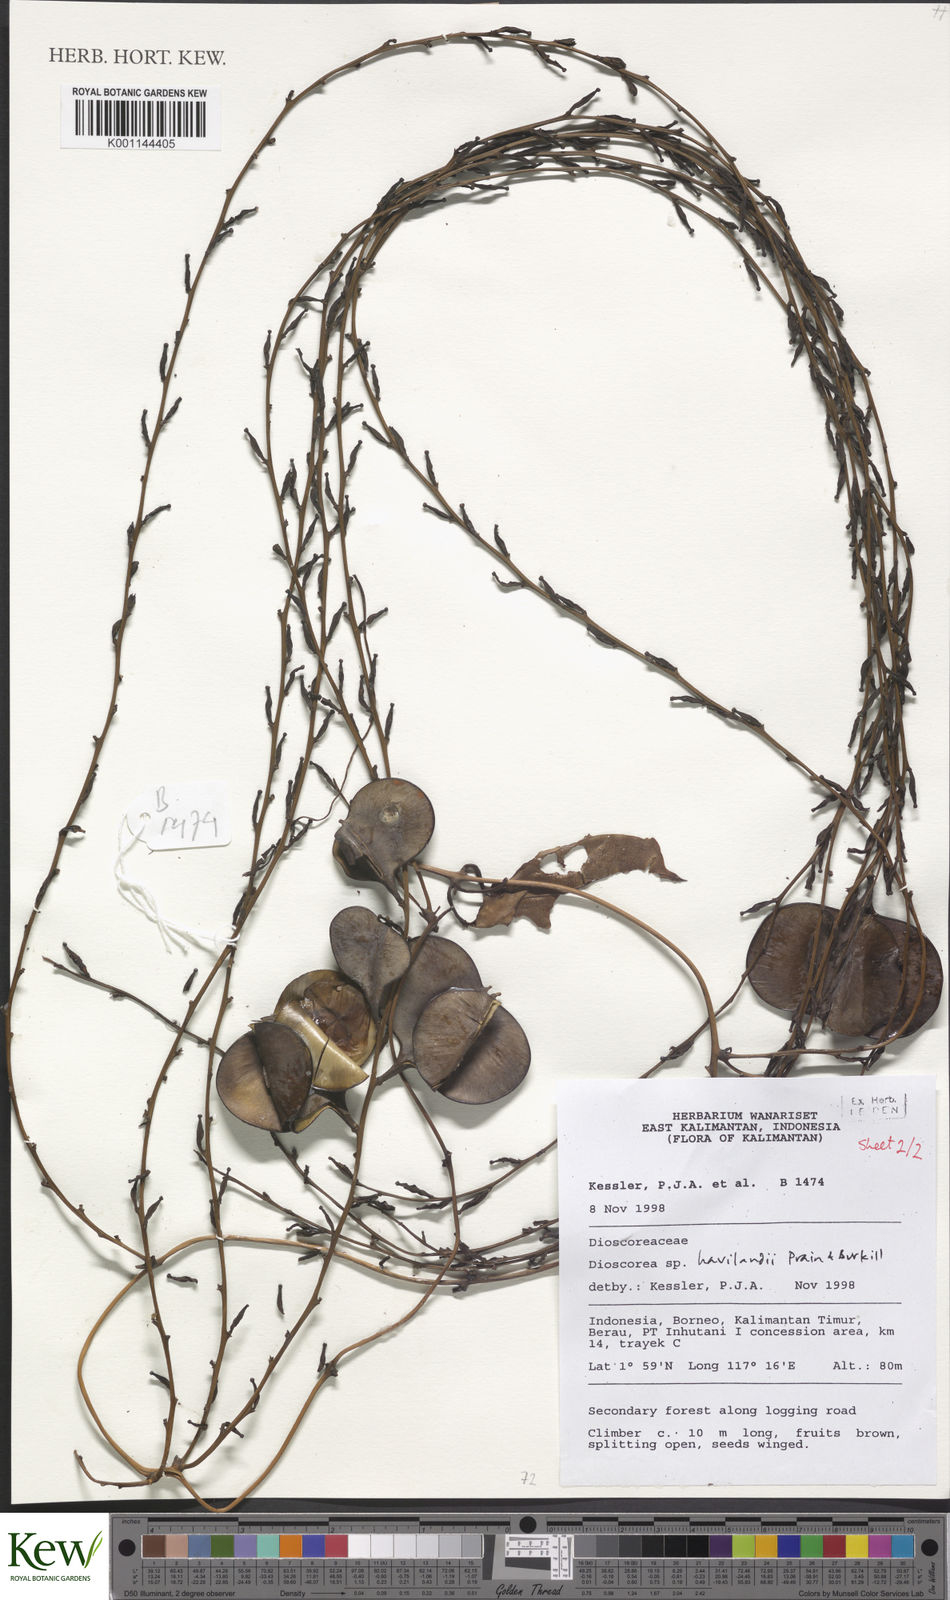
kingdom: Plantae
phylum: Tracheophyta
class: Liliopsida
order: Dioscoreales
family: Dioscoreaceae
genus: Dioscorea
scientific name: Dioscorea havilandii
